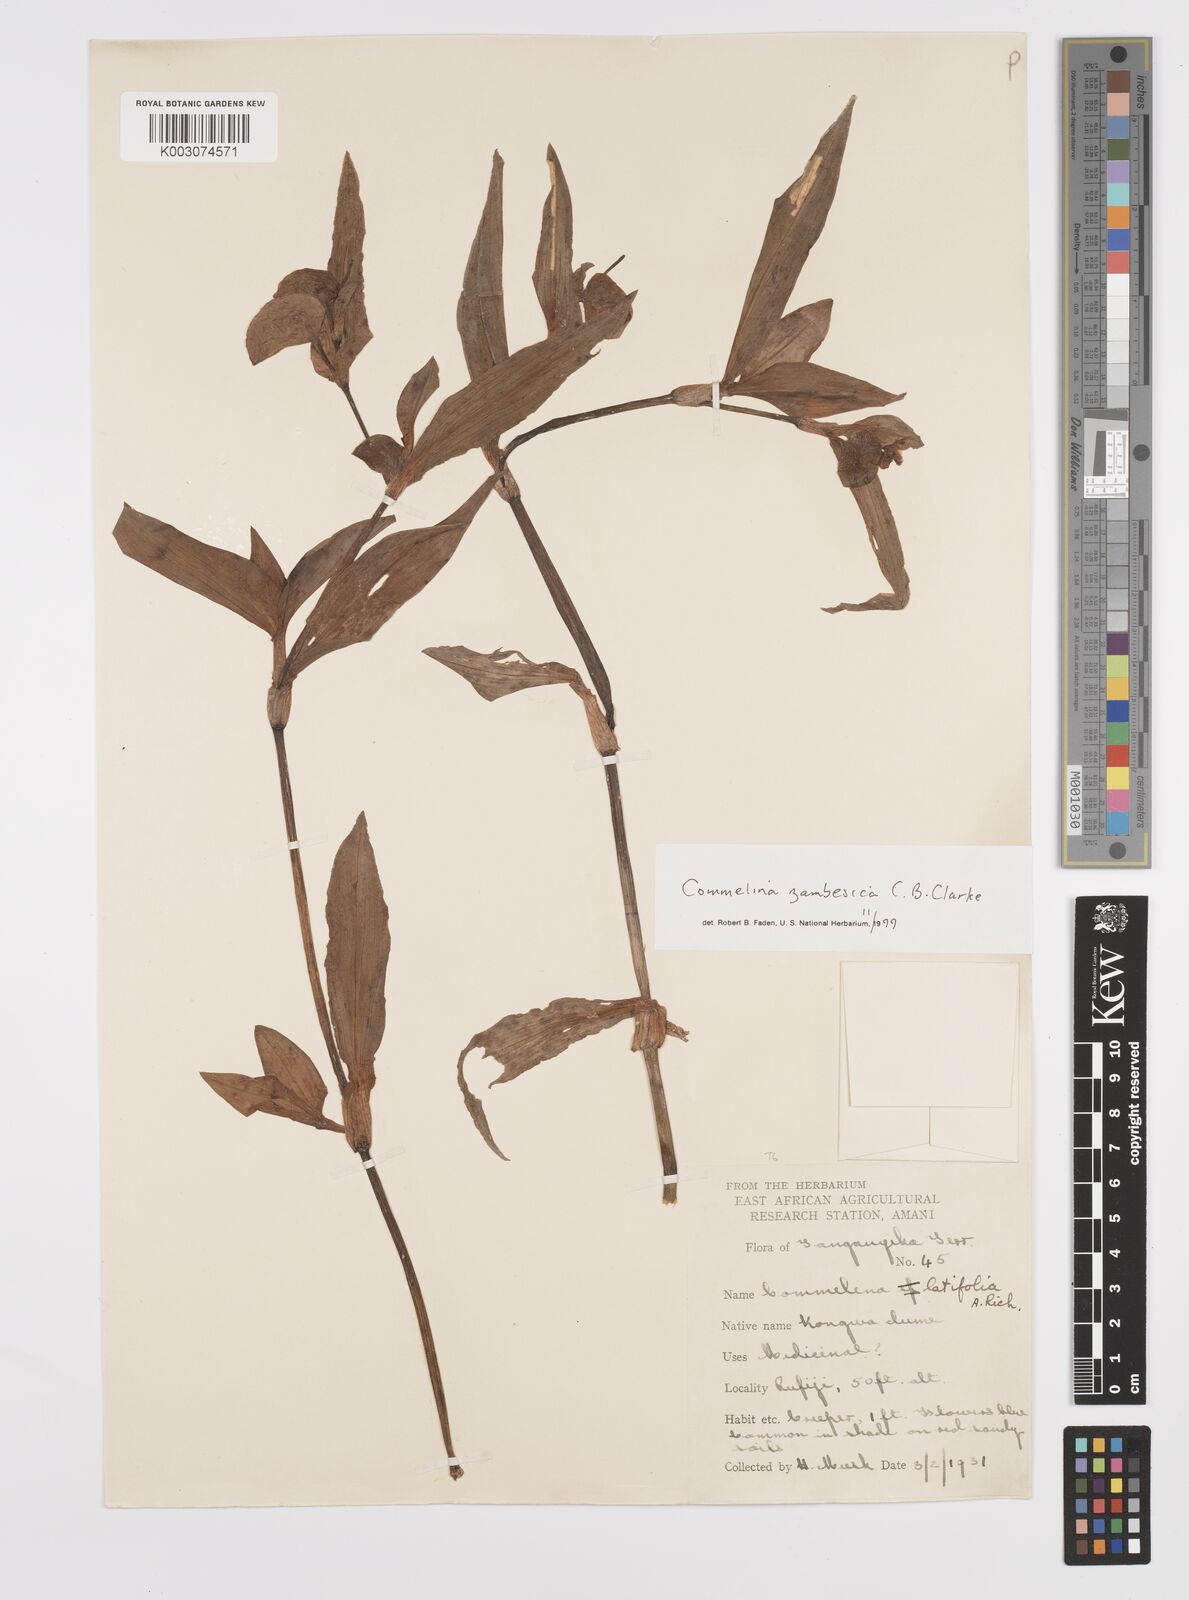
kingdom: Plantae
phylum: Tracheophyta
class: Liliopsida
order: Commelinales
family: Commelinaceae
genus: Commelina
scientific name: Commelina zambesica
